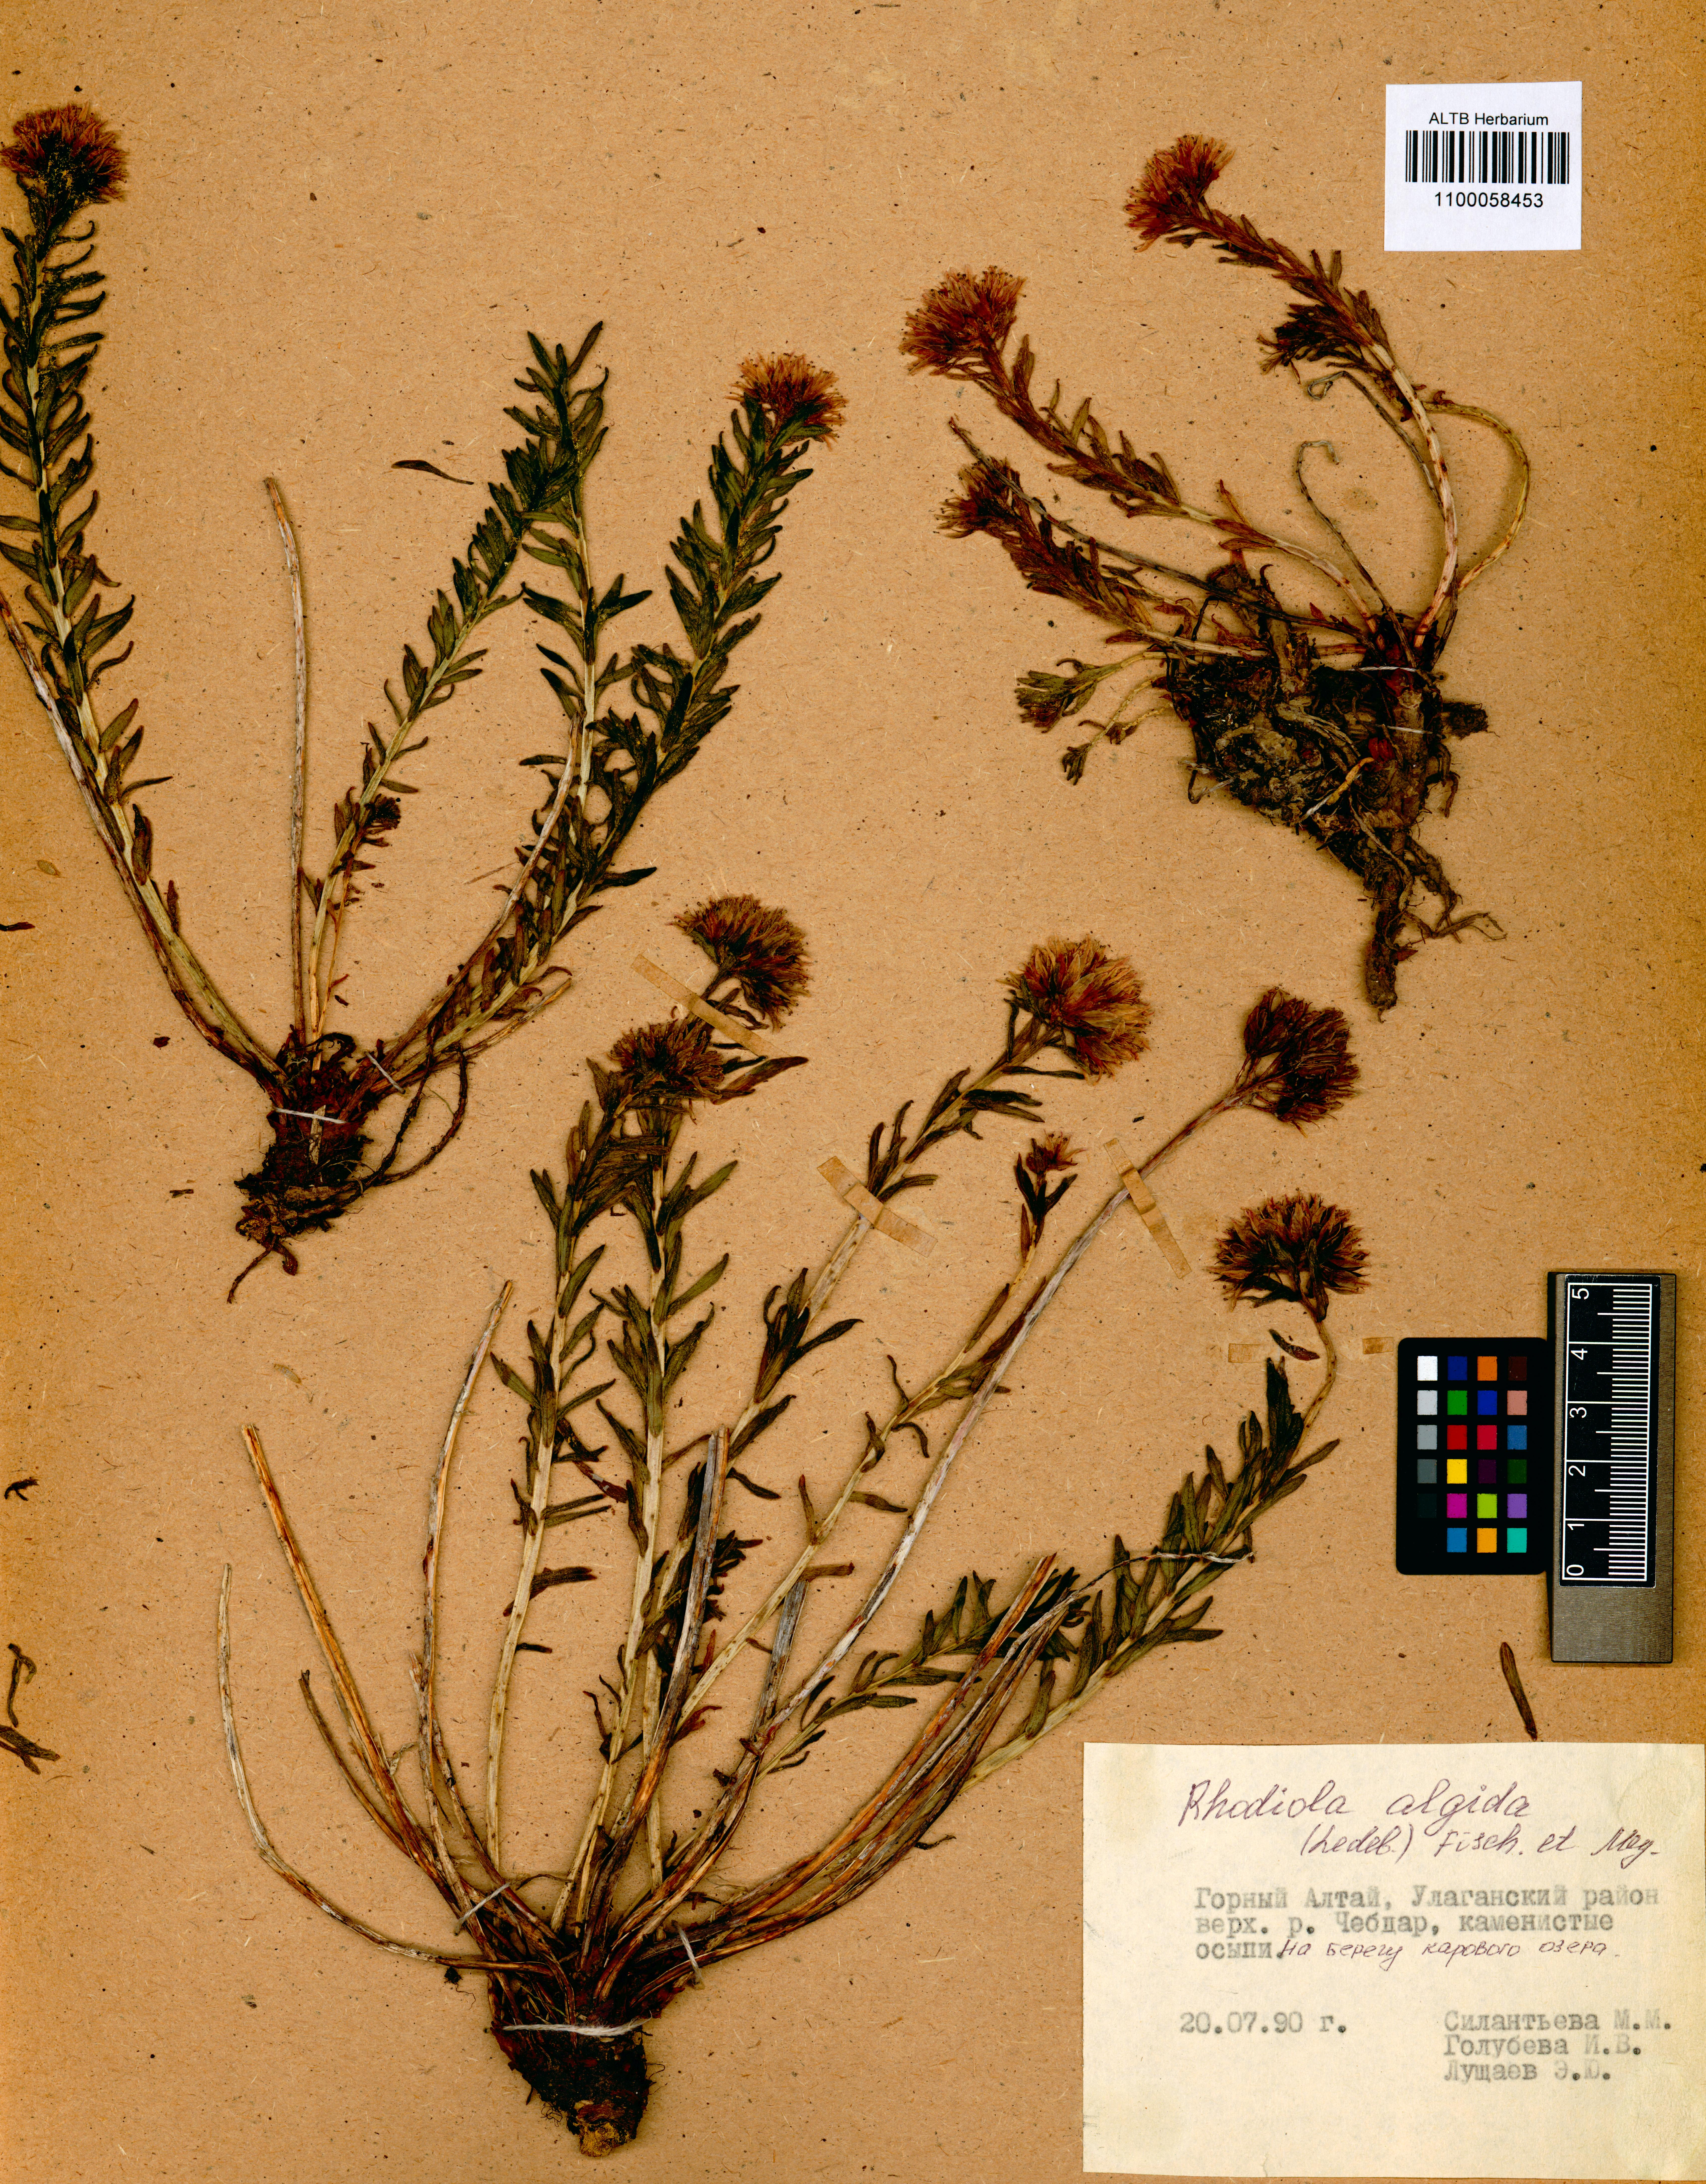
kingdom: Plantae
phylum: Tracheophyta
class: Magnoliopsida
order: Saxifragales
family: Crassulaceae
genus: Rhodiola
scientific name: Rhodiola algida
